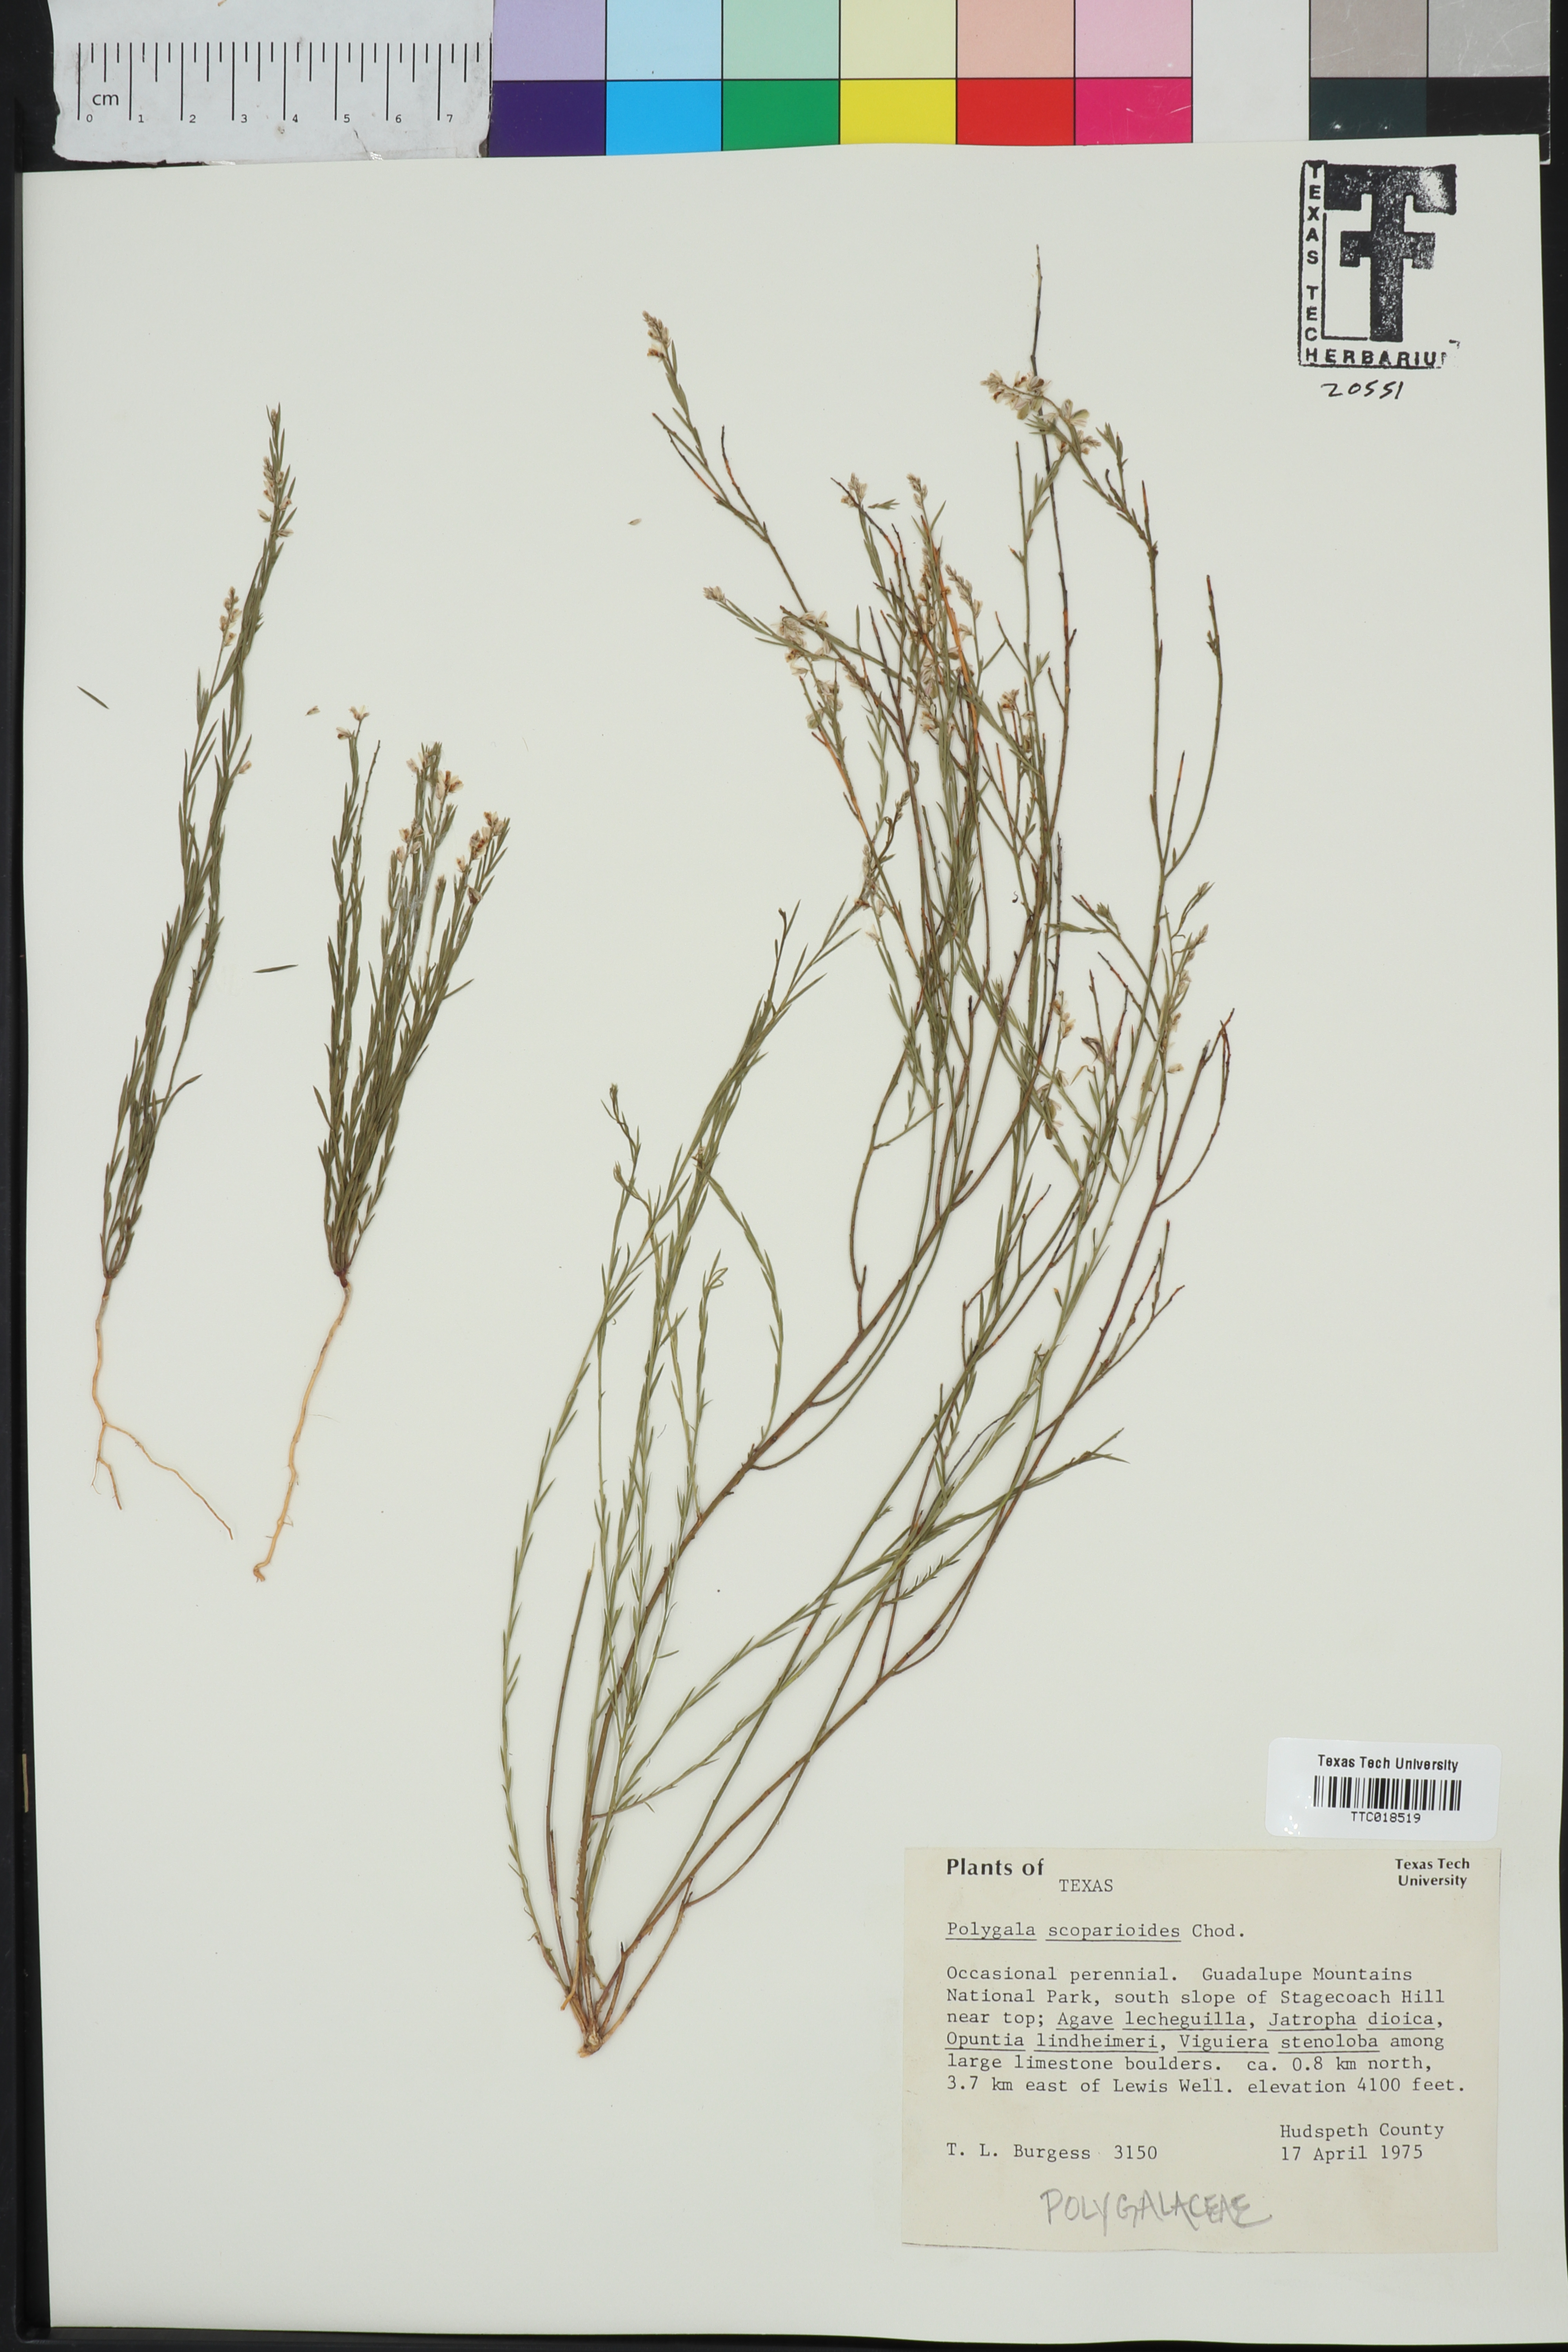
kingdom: Plantae
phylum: Tracheophyta
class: Magnoliopsida
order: Fabales
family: Polygalaceae
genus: Polygala
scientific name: Polygala scoparioides
